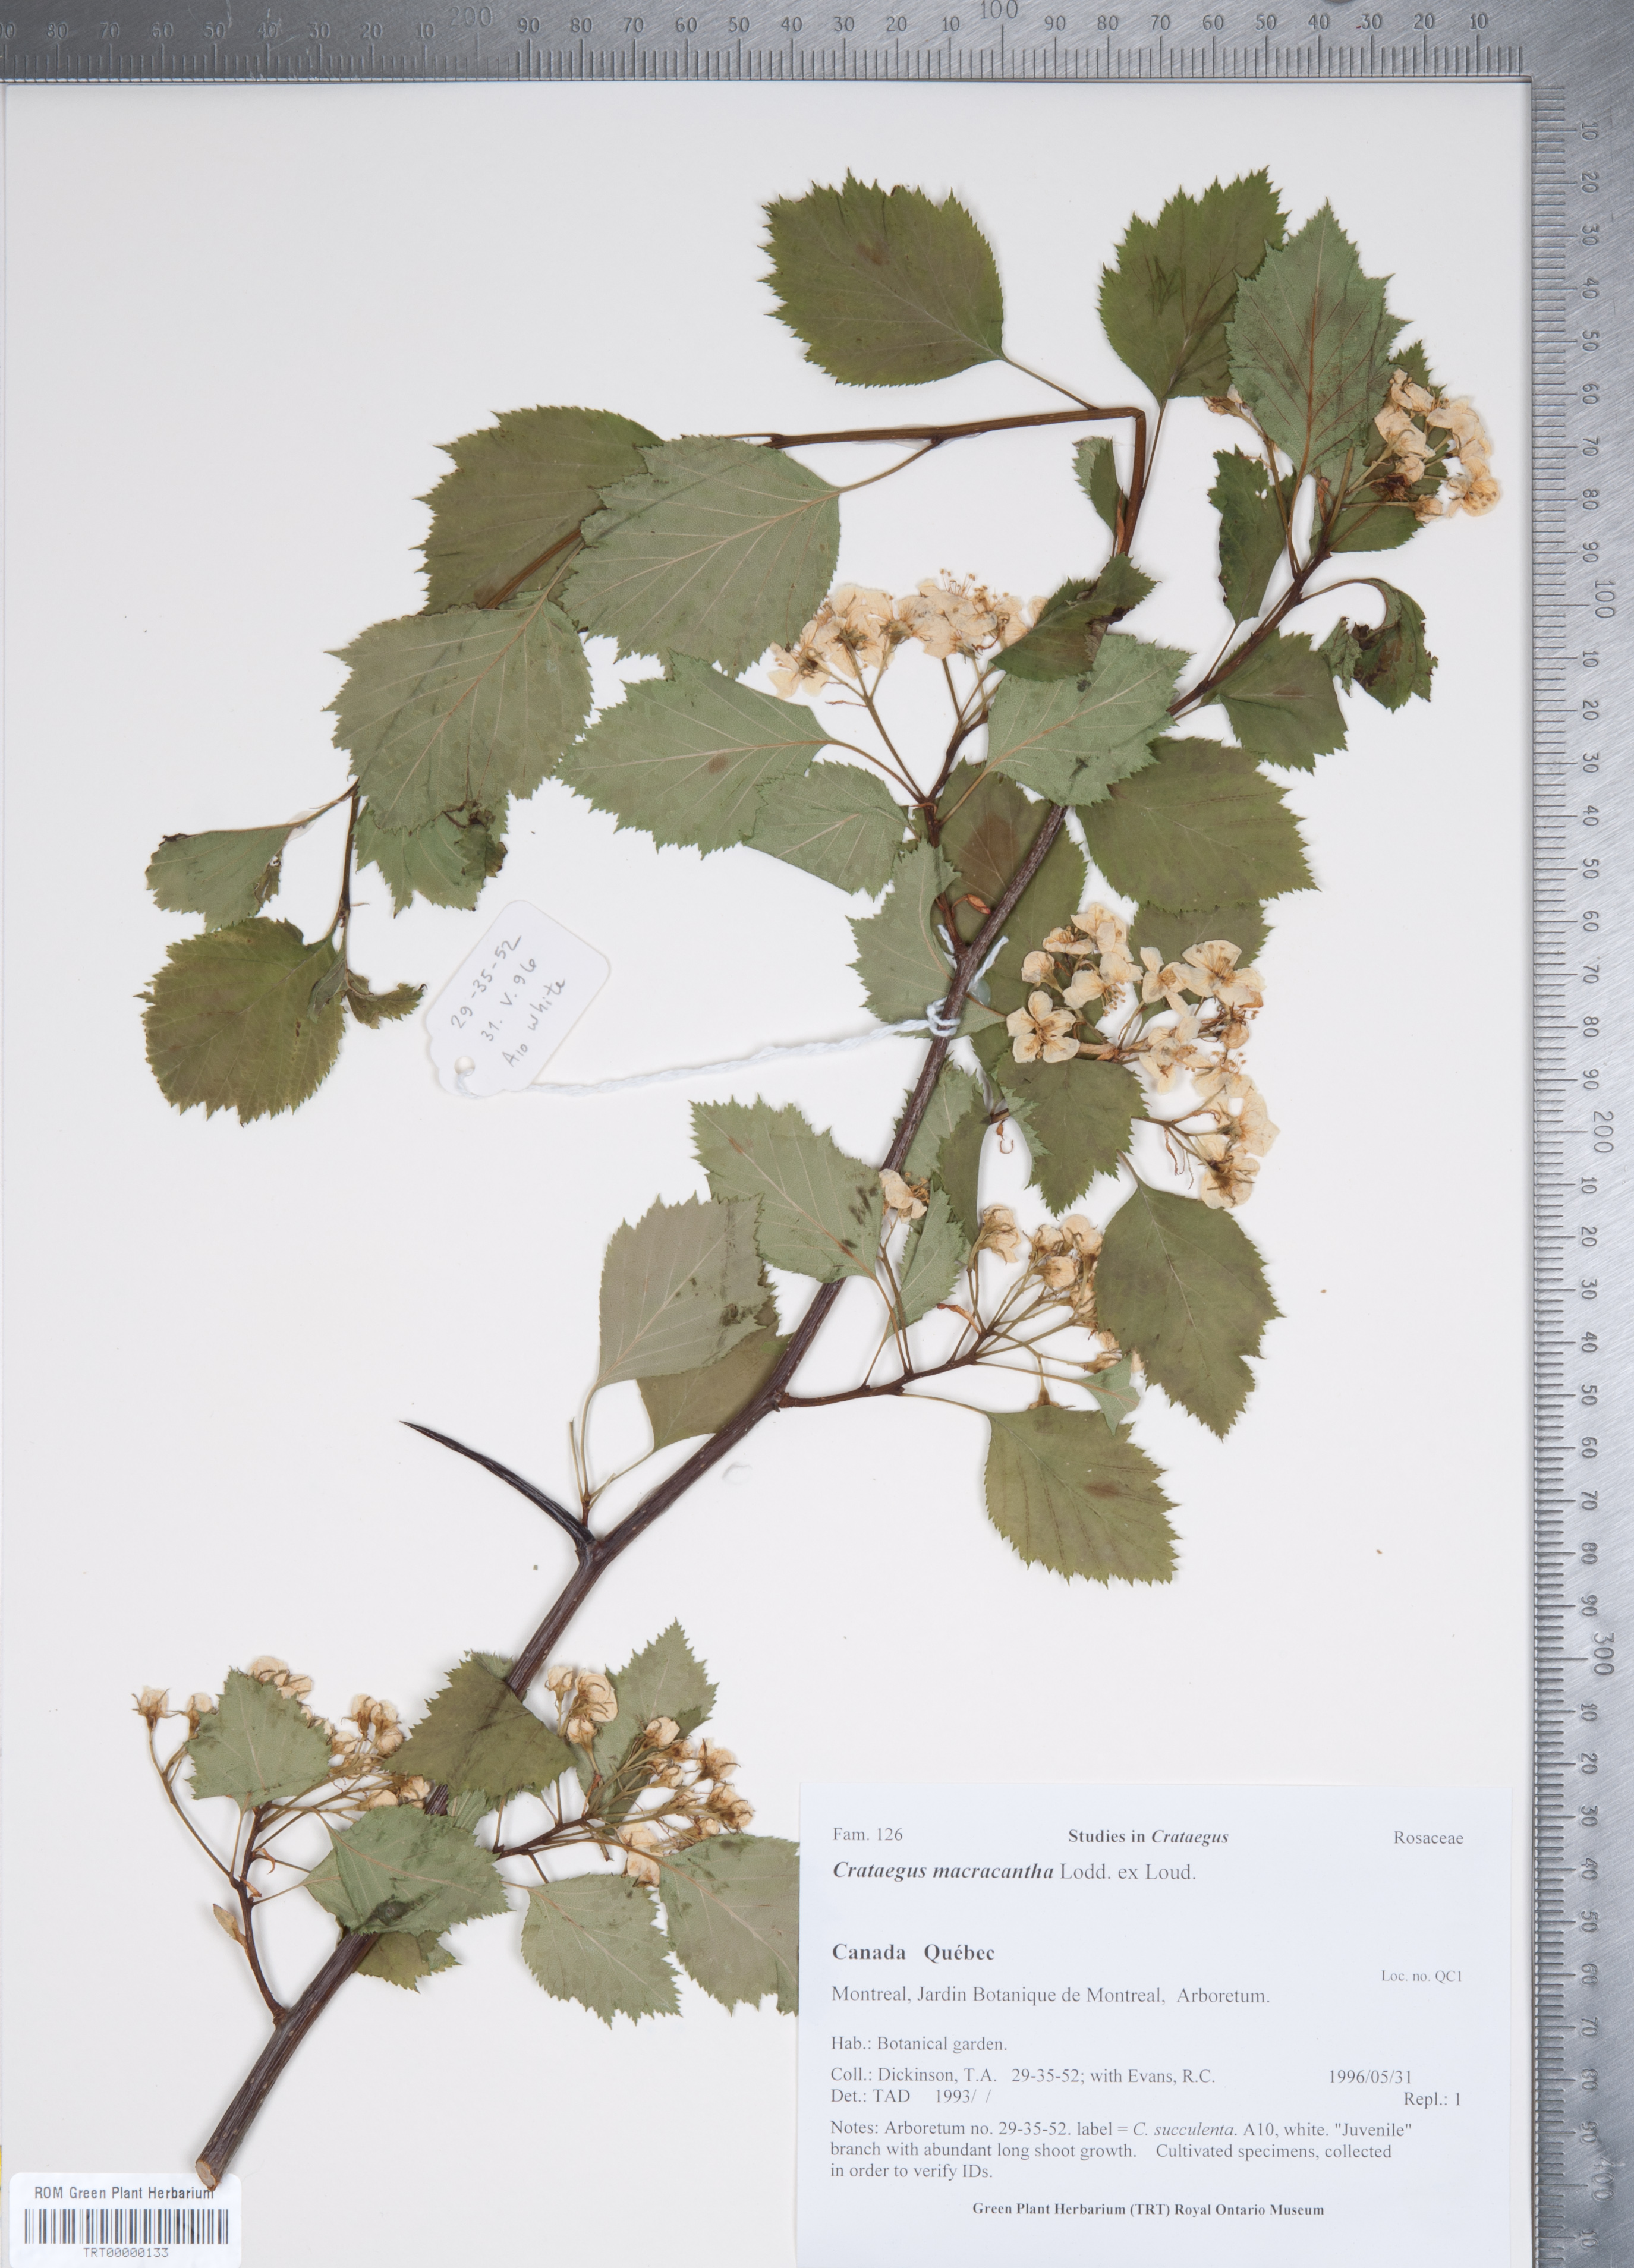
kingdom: Plantae
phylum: Tracheophyta
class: Magnoliopsida
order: Rosales
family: Rosaceae
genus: Crataegus
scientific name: Crataegus macracantha
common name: Large-thorn hawthorn
